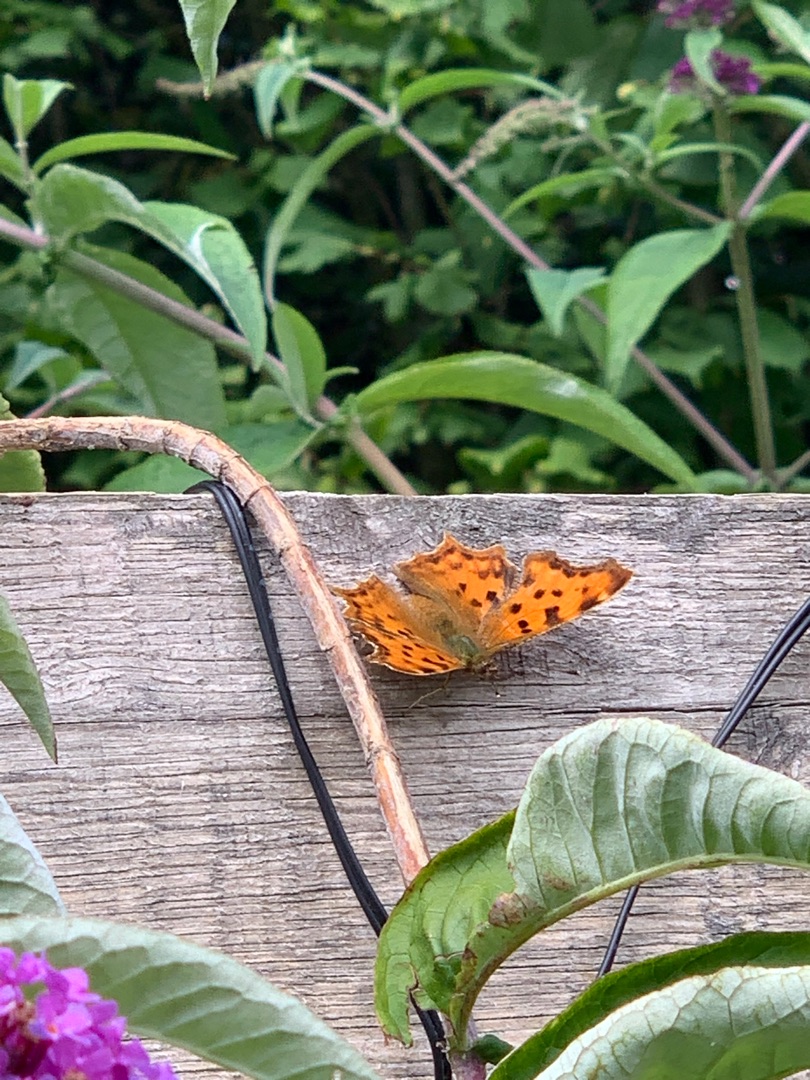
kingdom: Animalia
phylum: Arthropoda
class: Insecta
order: Lepidoptera
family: Nymphalidae
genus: Polygonia
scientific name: Polygonia c-album
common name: Det hvide C
